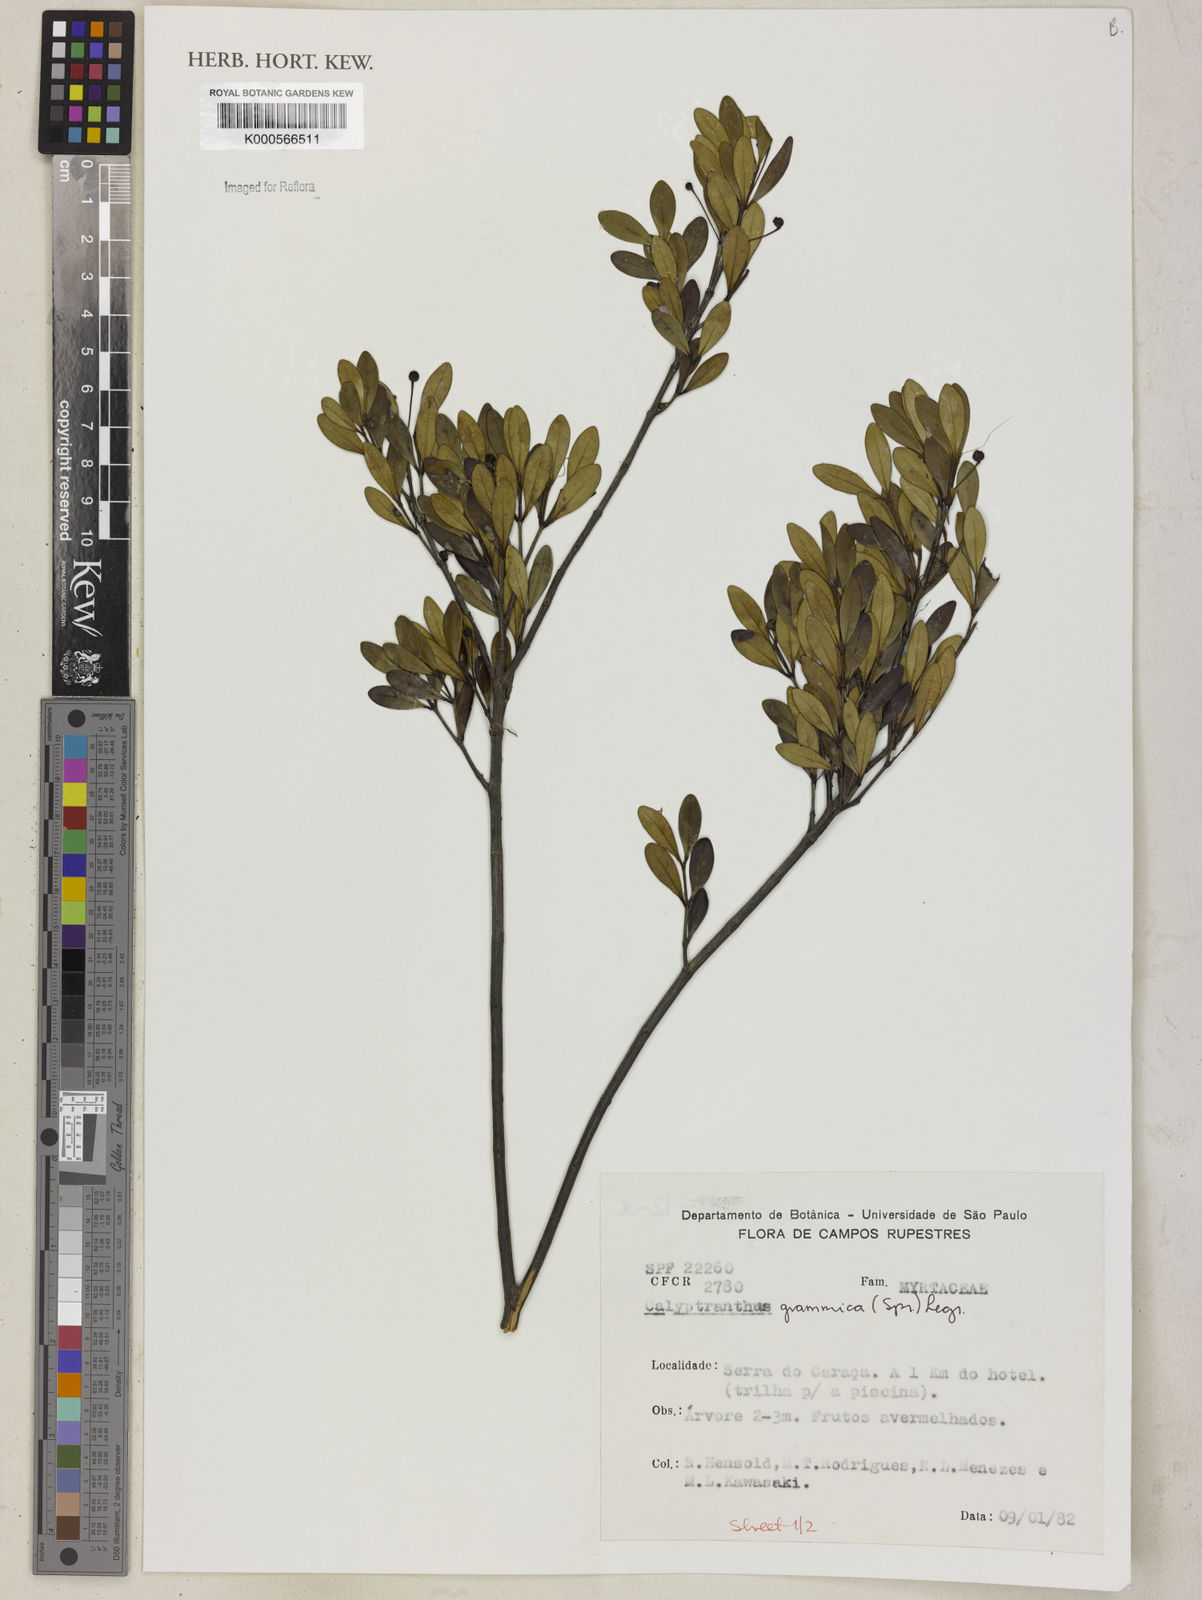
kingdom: Plantae
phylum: Tracheophyta
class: Magnoliopsida
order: Myrtales
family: Myrtaceae
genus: Myrcia
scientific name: Myrcia grammica
